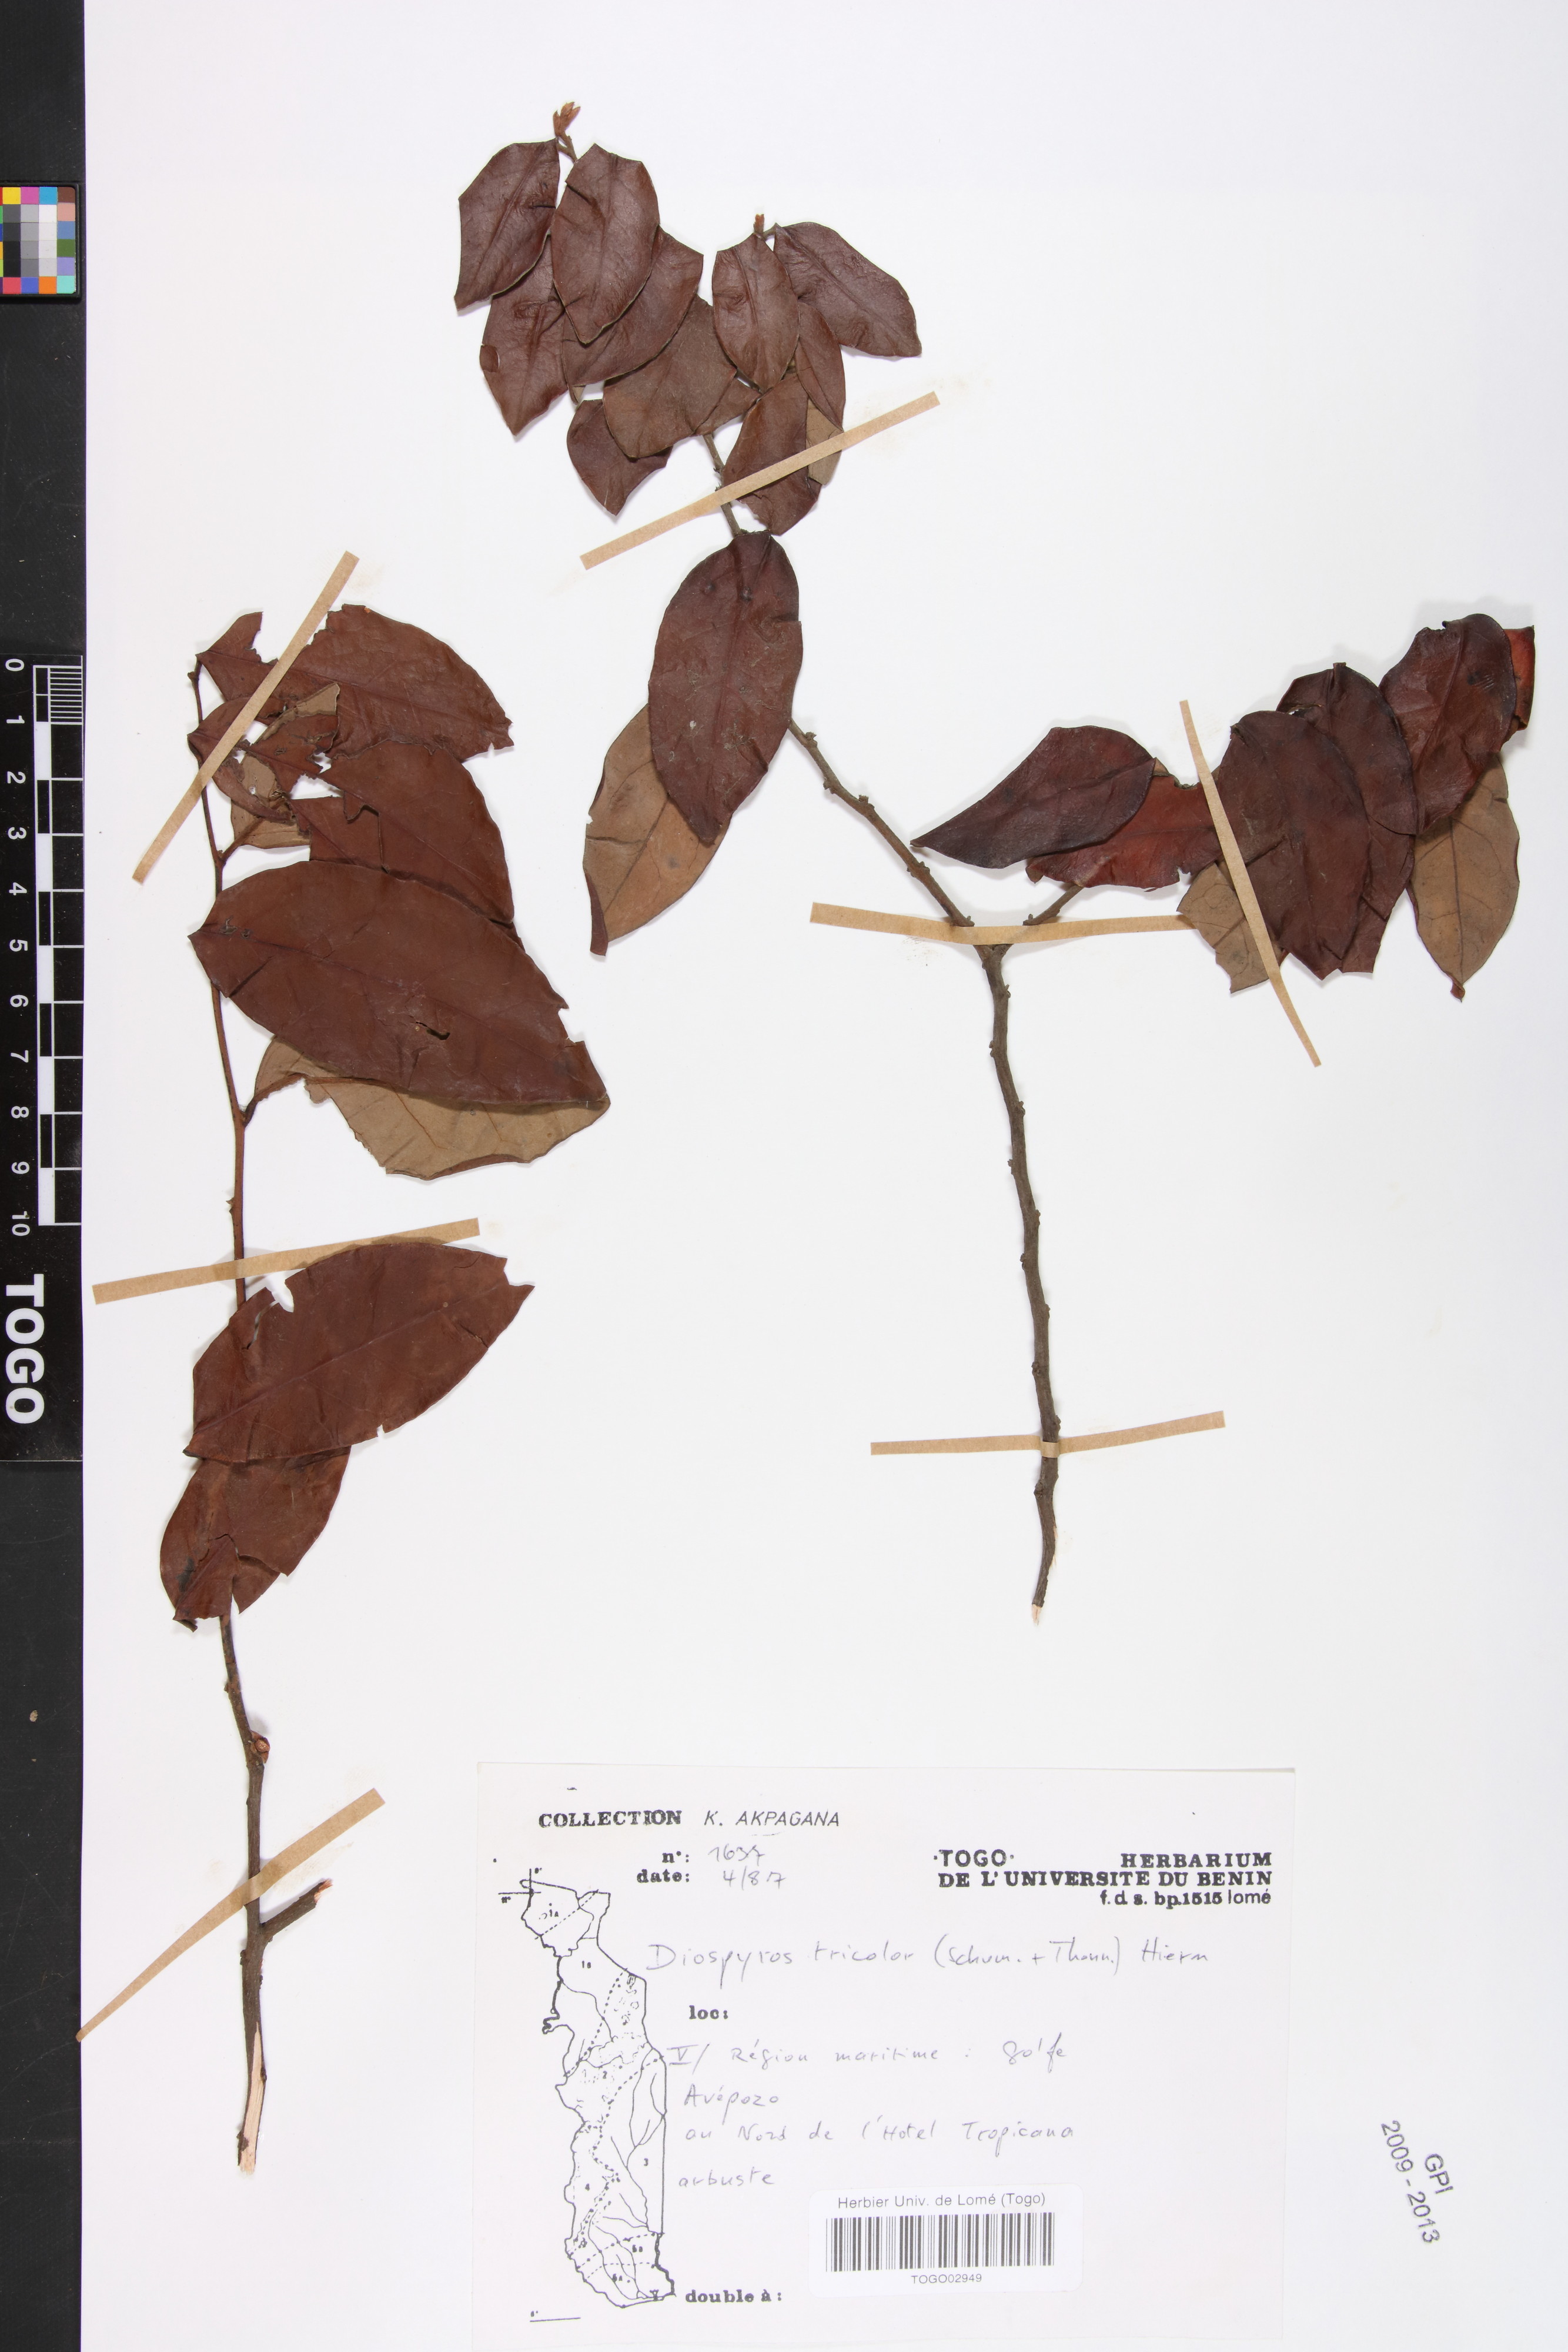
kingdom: Plantae
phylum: Tracheophyta
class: Magnoliopsida
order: Ericales
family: Ebenaceae
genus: Diospyros
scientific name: Diospyros tricolor
